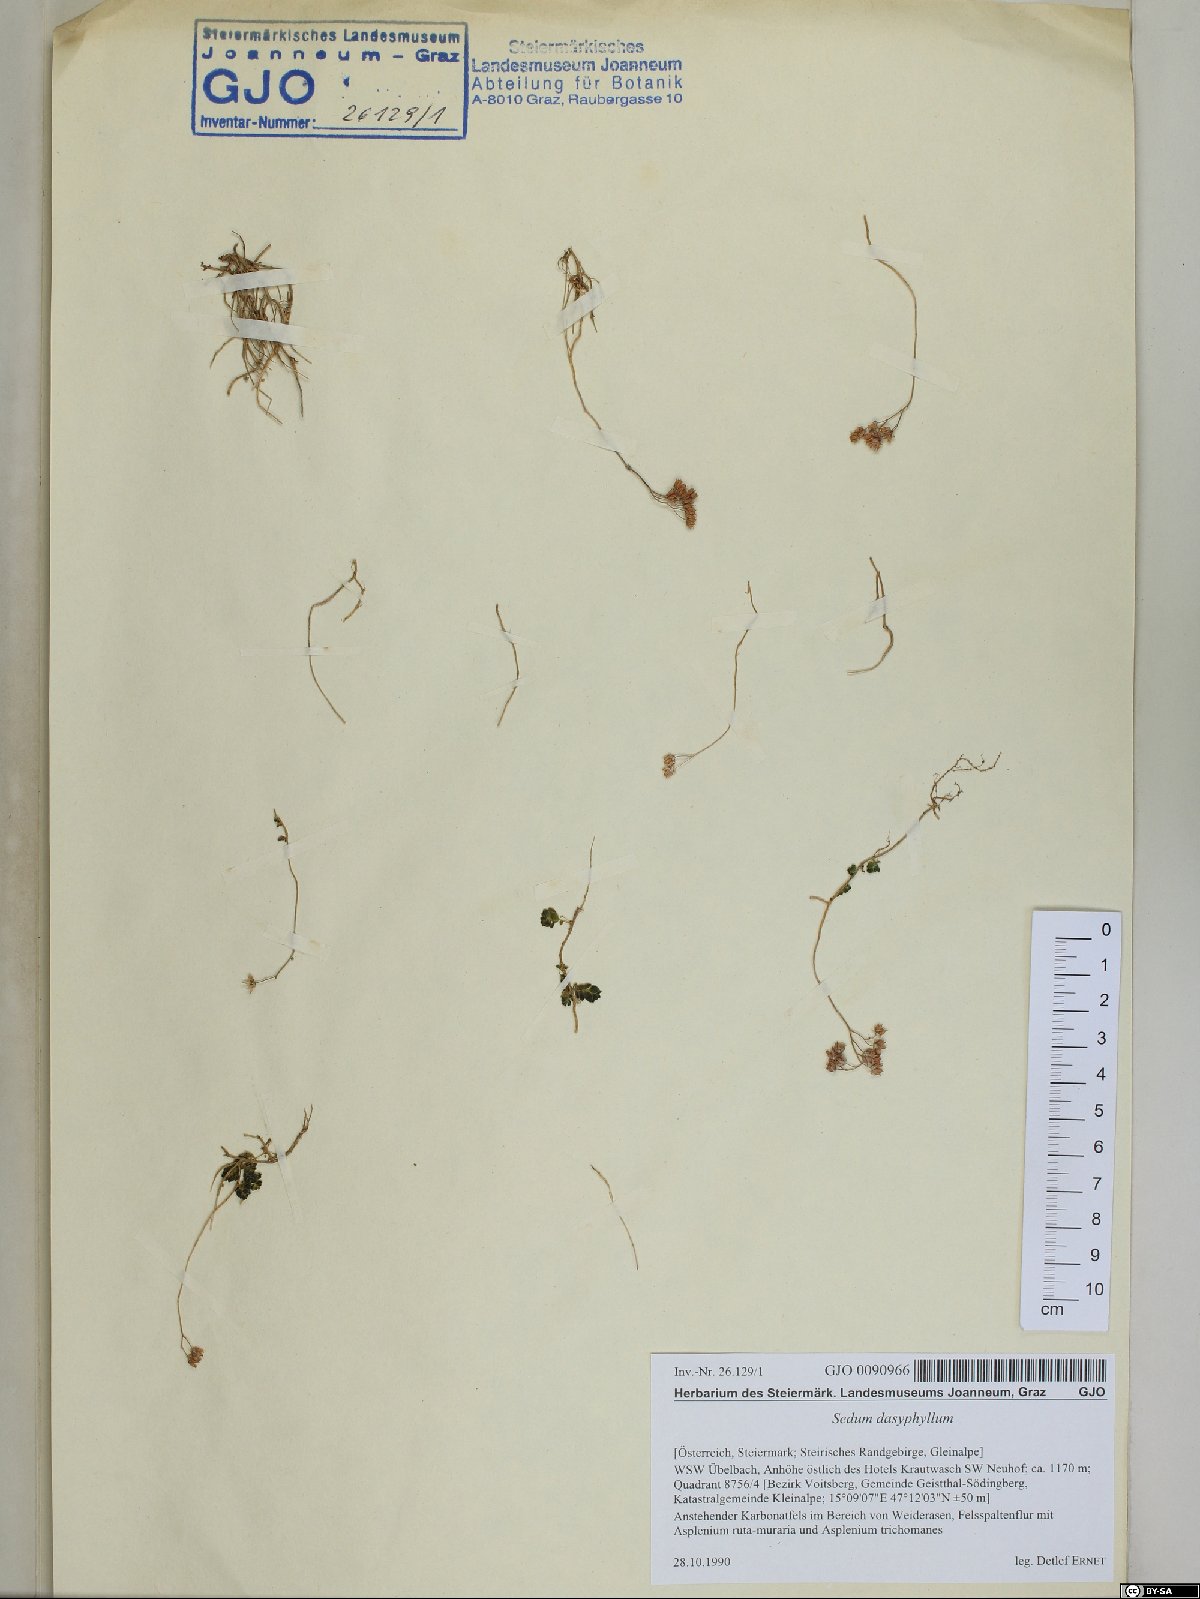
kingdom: Plantae
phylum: Tracheophyta
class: Magnoliopsida
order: Saxifragales
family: Crassulaceae
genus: Sedum
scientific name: Sedum dasyphyllum
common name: Thick-leaf stonecrop
